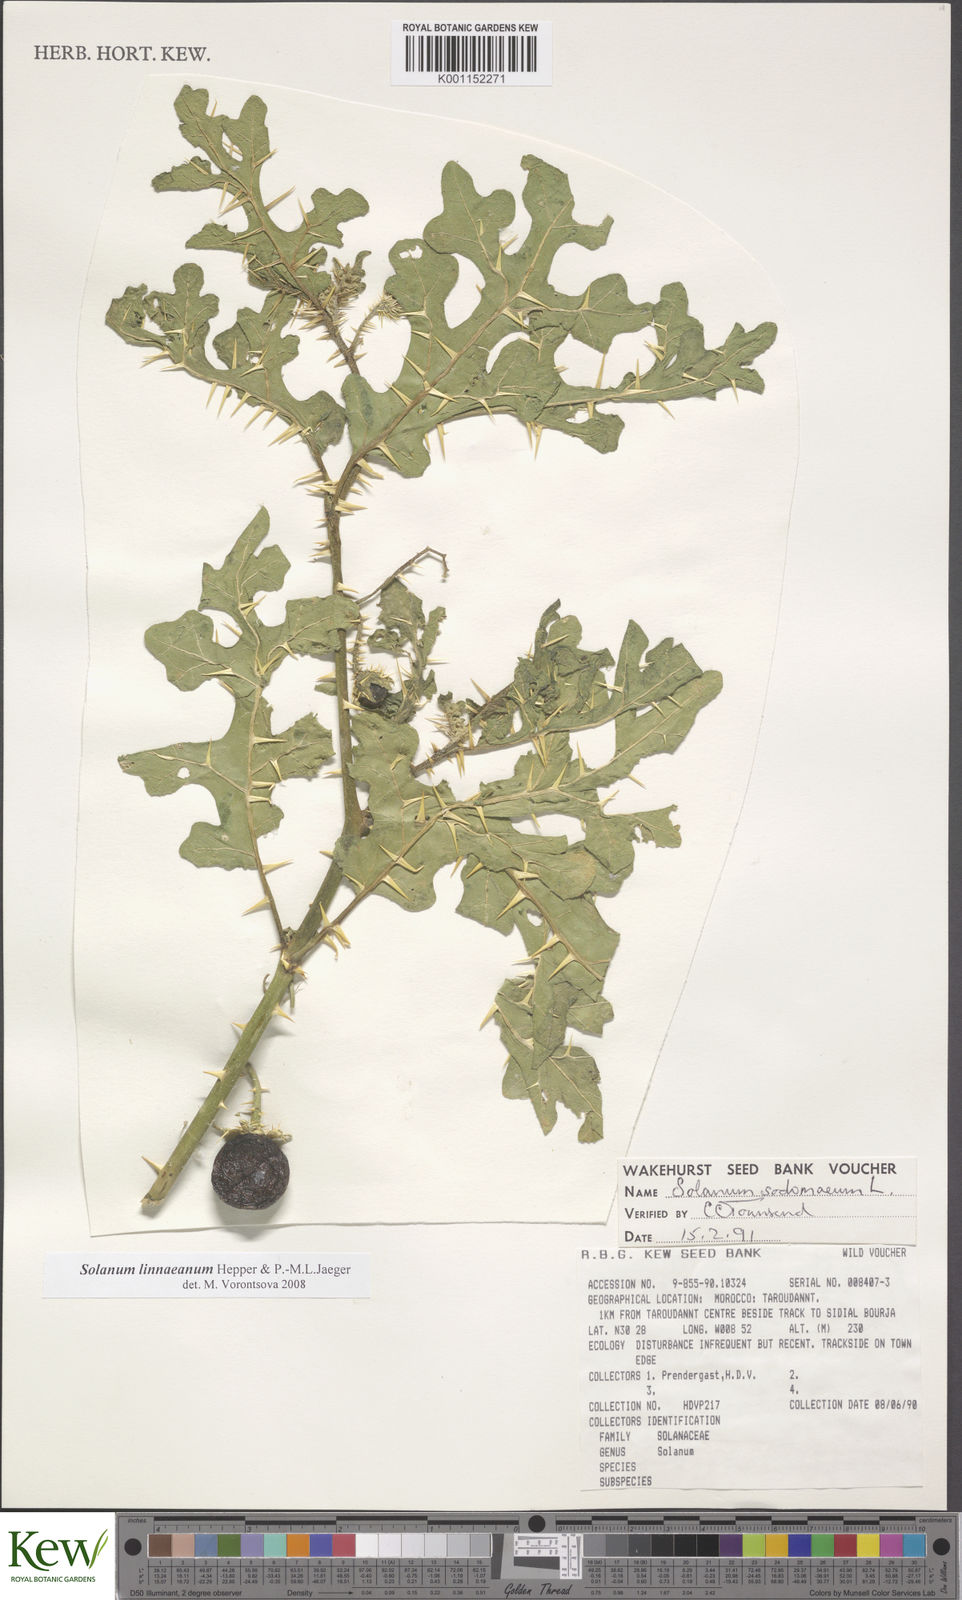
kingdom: Plantae
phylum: Tracheophyta
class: Magnoliopsida
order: Solanales
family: Solanaceae
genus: Solanum
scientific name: Solanum linnaeanum
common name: Nightshade
